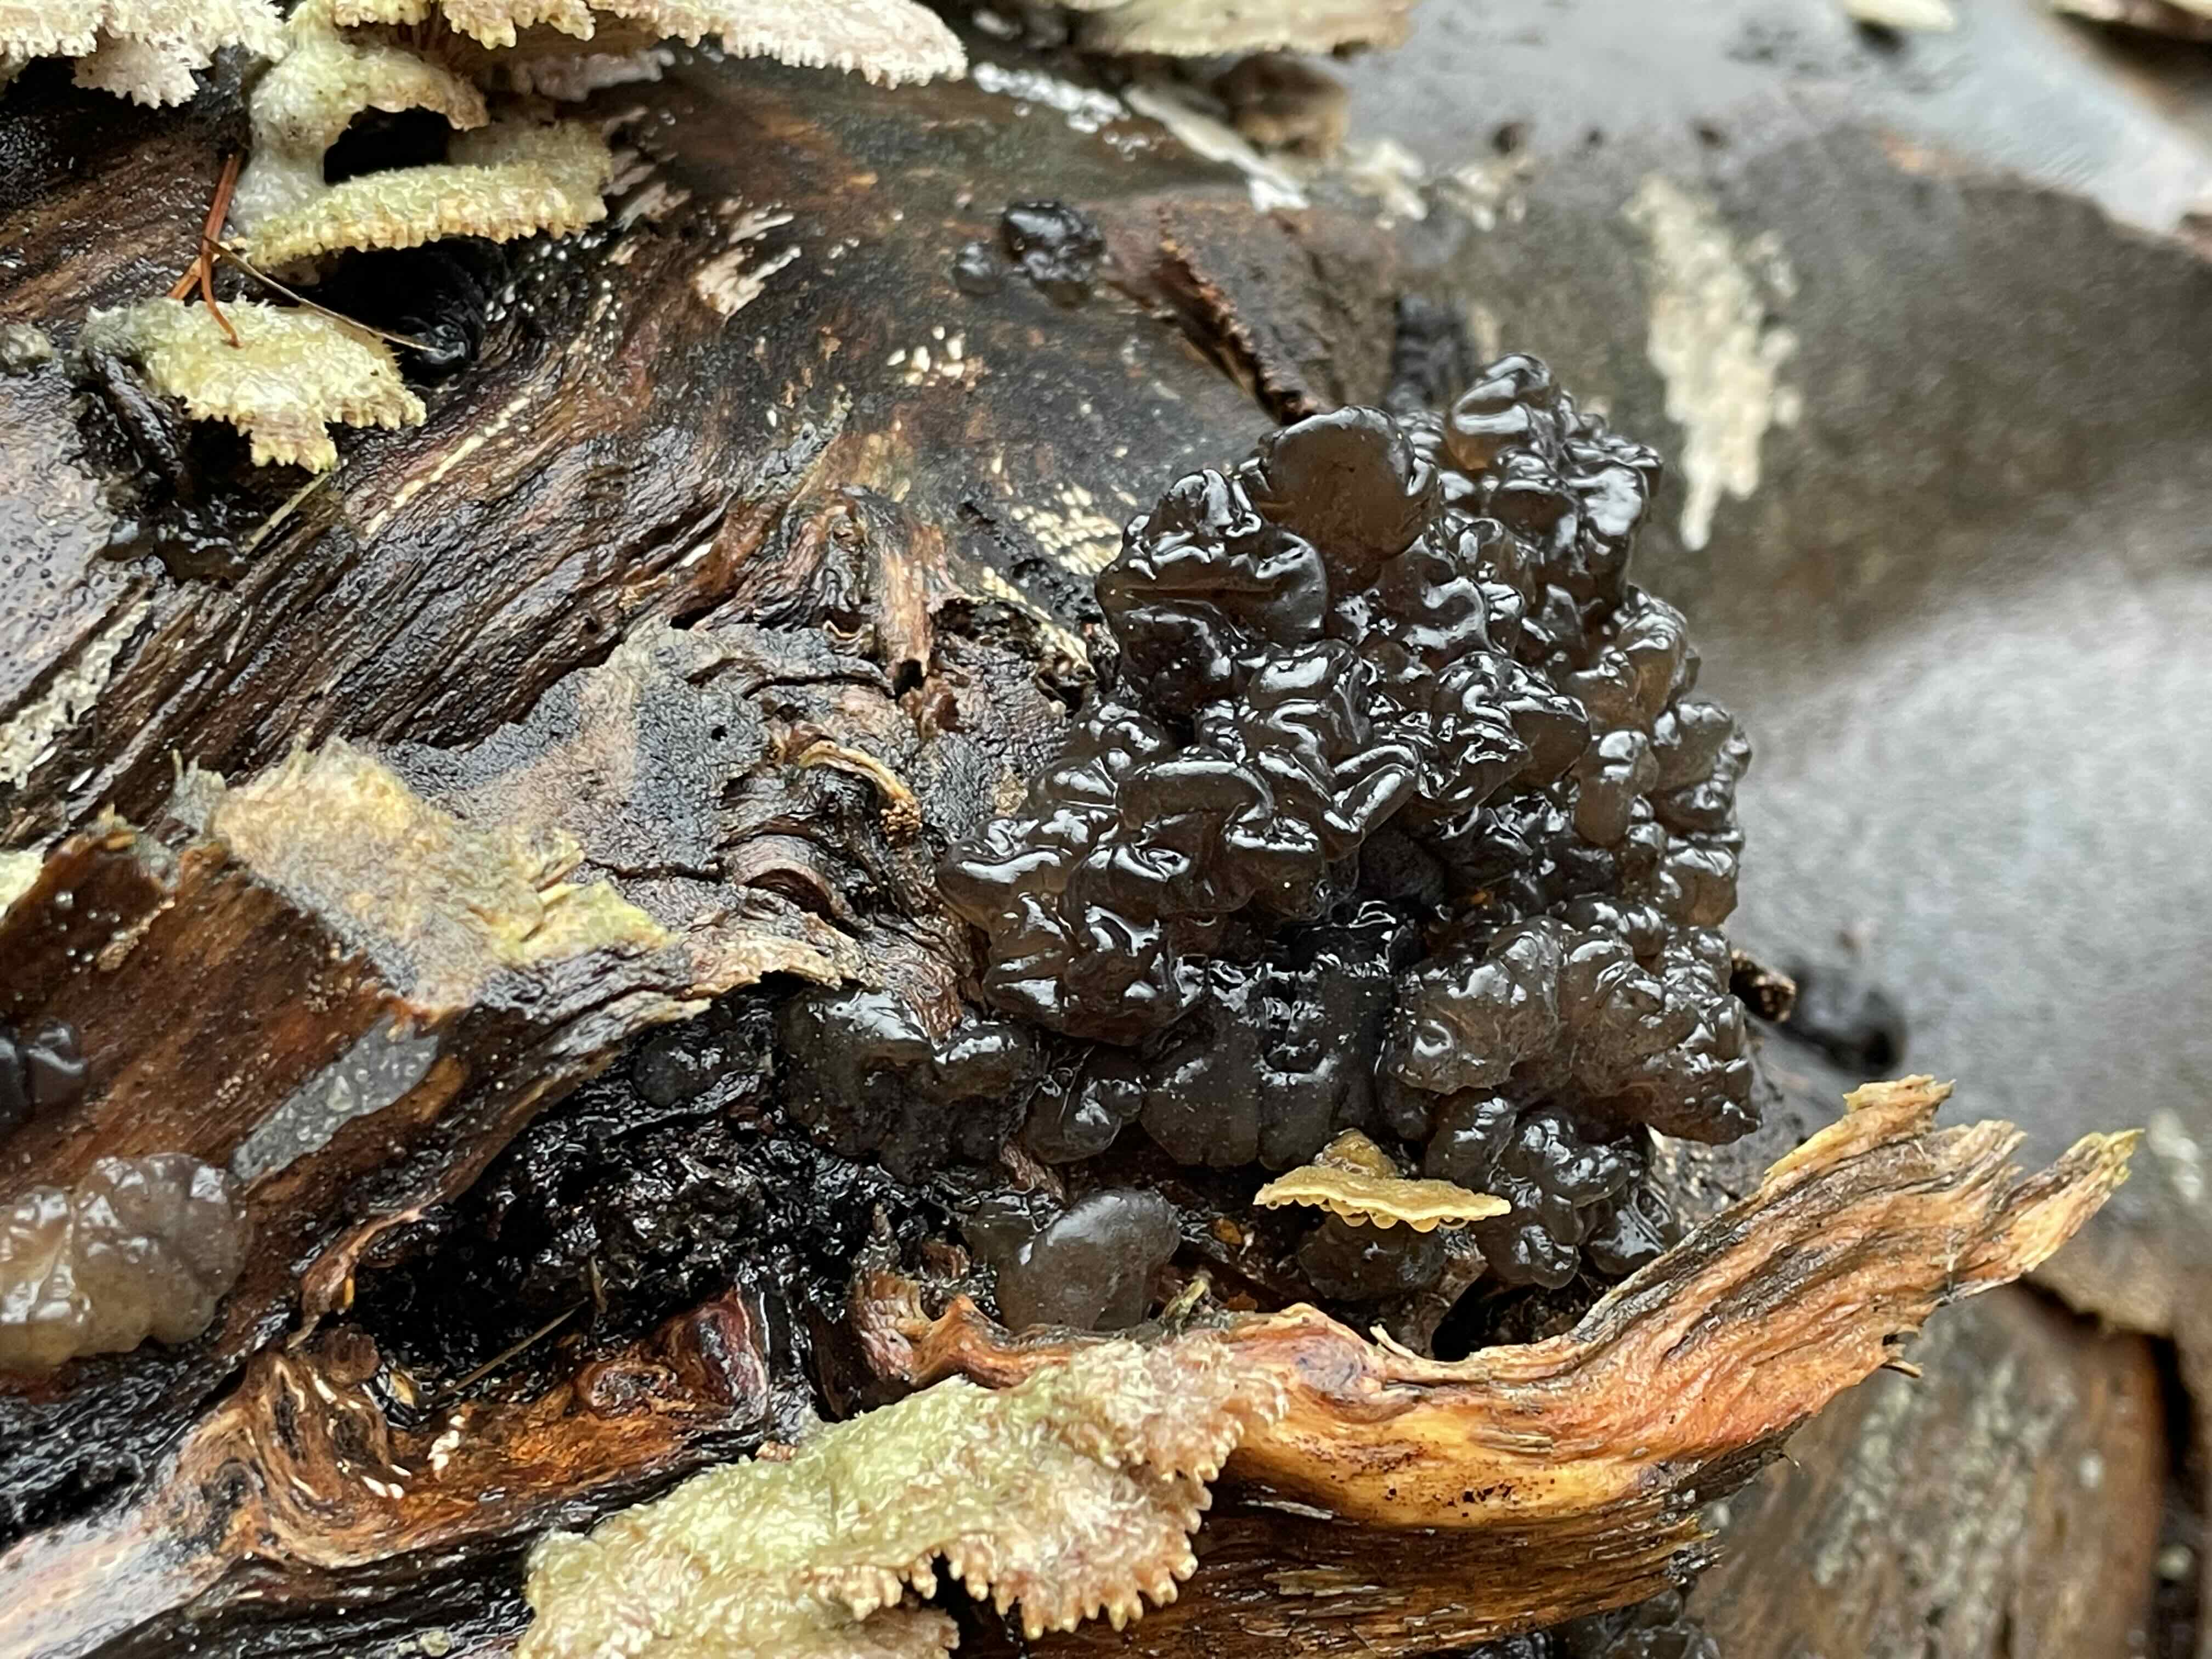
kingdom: Fungi
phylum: Basidiomycota
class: Agaricomycetes
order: Auriculariales
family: Auriculariaceae
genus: Exidia
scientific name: Exidia nigricans
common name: almindelig bævretop
